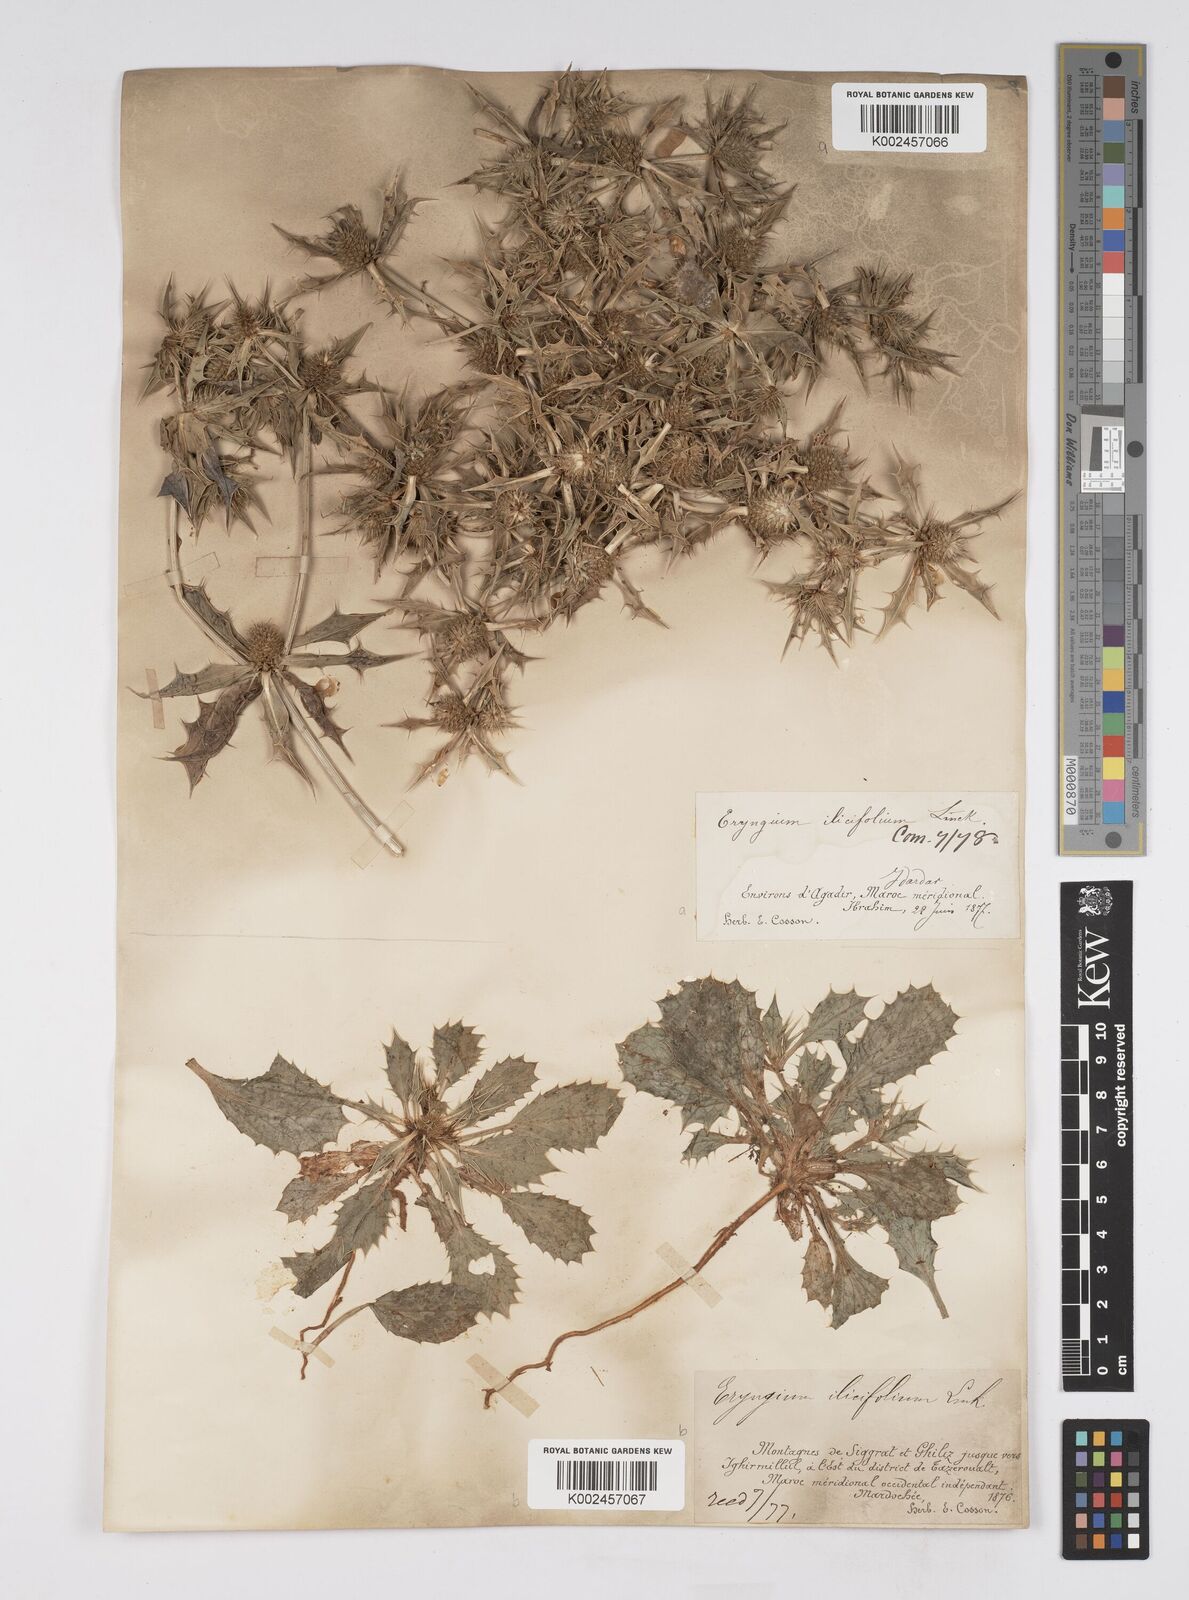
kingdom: Plantae
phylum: Tracheophyta
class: Magnoliopsida
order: Apiales
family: Apiaceae
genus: Eryngium
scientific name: Eryngium
